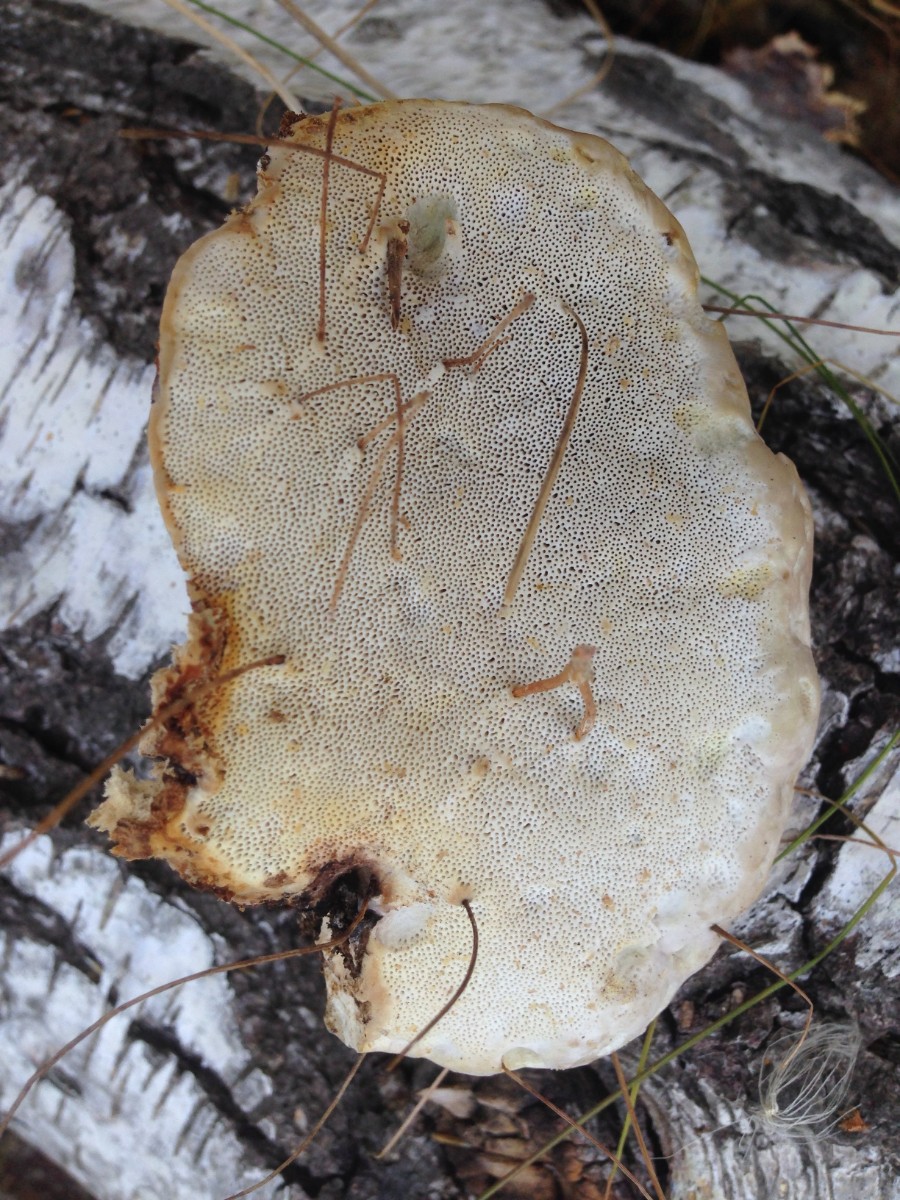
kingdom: Fungi
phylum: Basidiomycota
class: Agaricomycetes
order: Polyporales
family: Fomitopsidaceae
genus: Fomitopsis
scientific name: Fomitopsis pinicola
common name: randbæltet hovporesvamp
